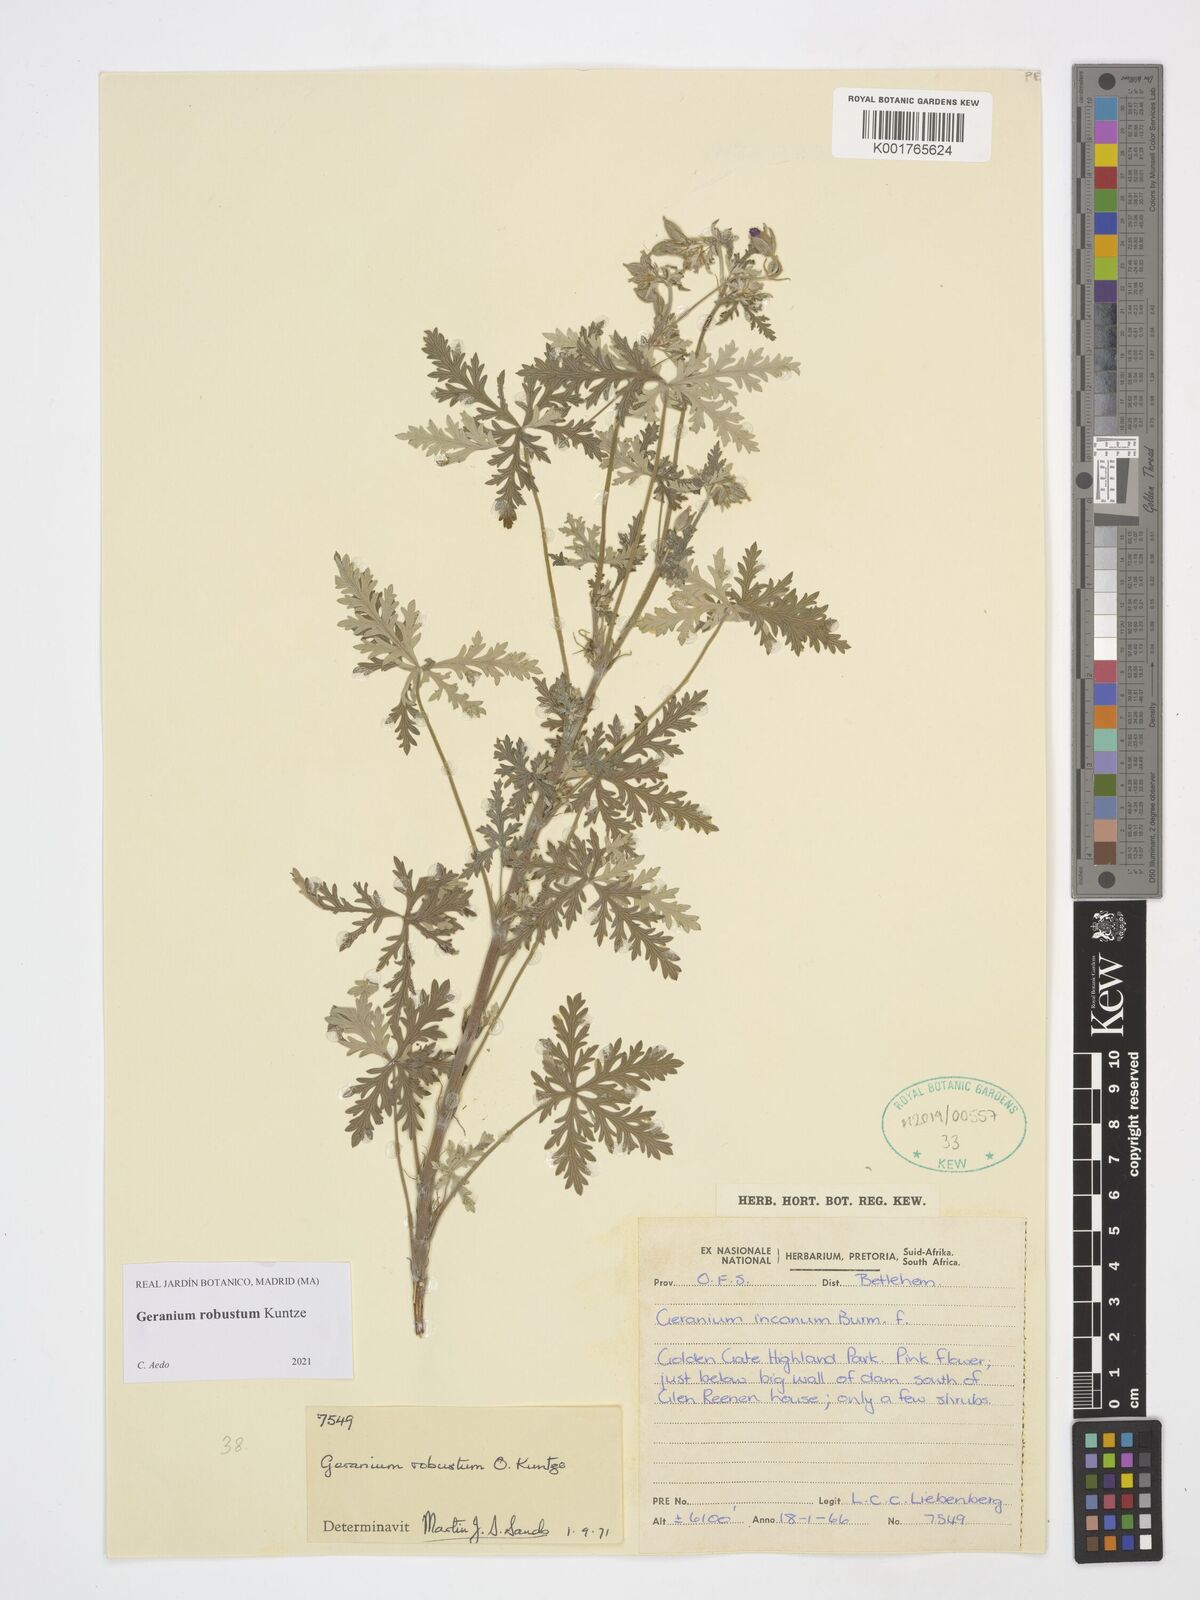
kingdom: Plantae
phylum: Tracheophyta
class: Magnoliopsida
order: Geraniales
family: Geraniaceae
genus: Geranium
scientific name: Geranium robustum
